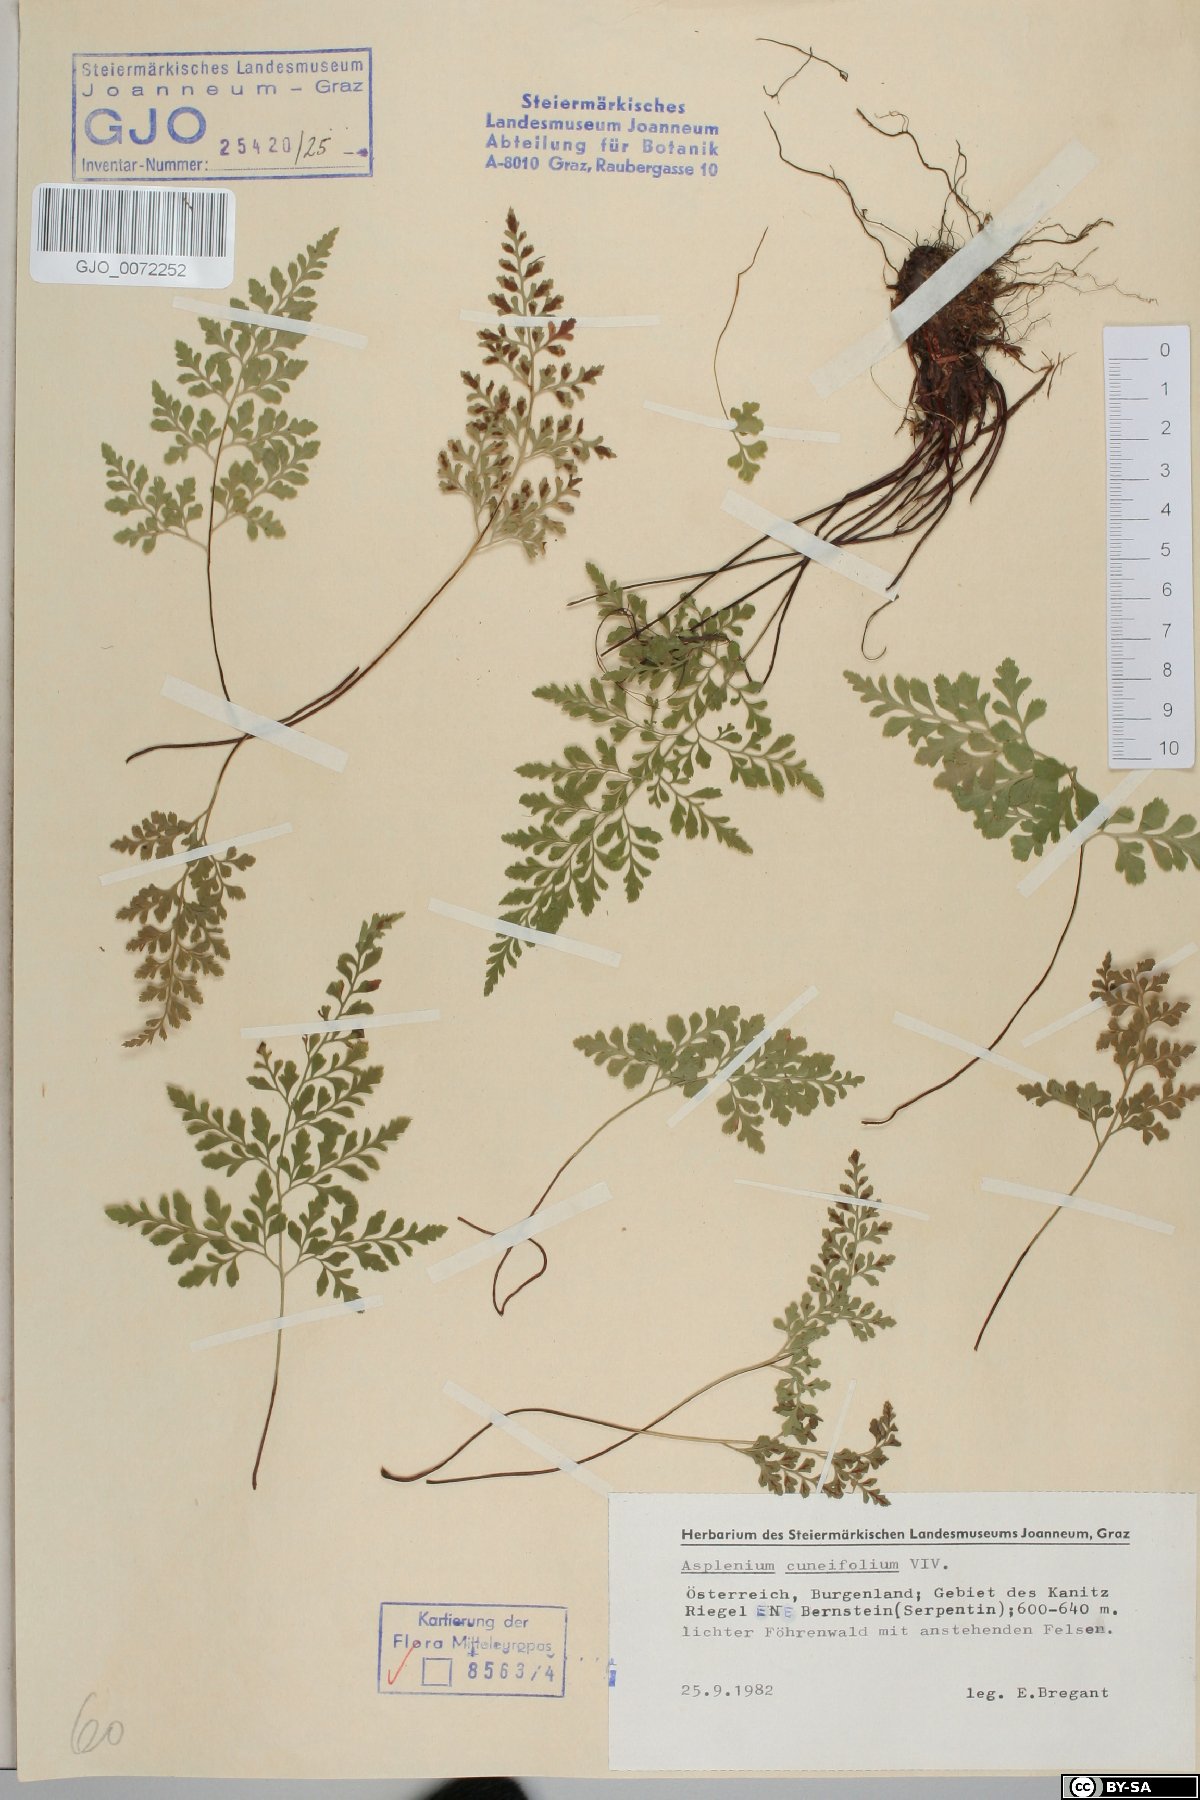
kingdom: Plantae
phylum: Tracheophyta
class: Polypodiopsida
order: Polypodiales
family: Aspleniaceae
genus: Asplenium
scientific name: Asplenium cuneifolium
